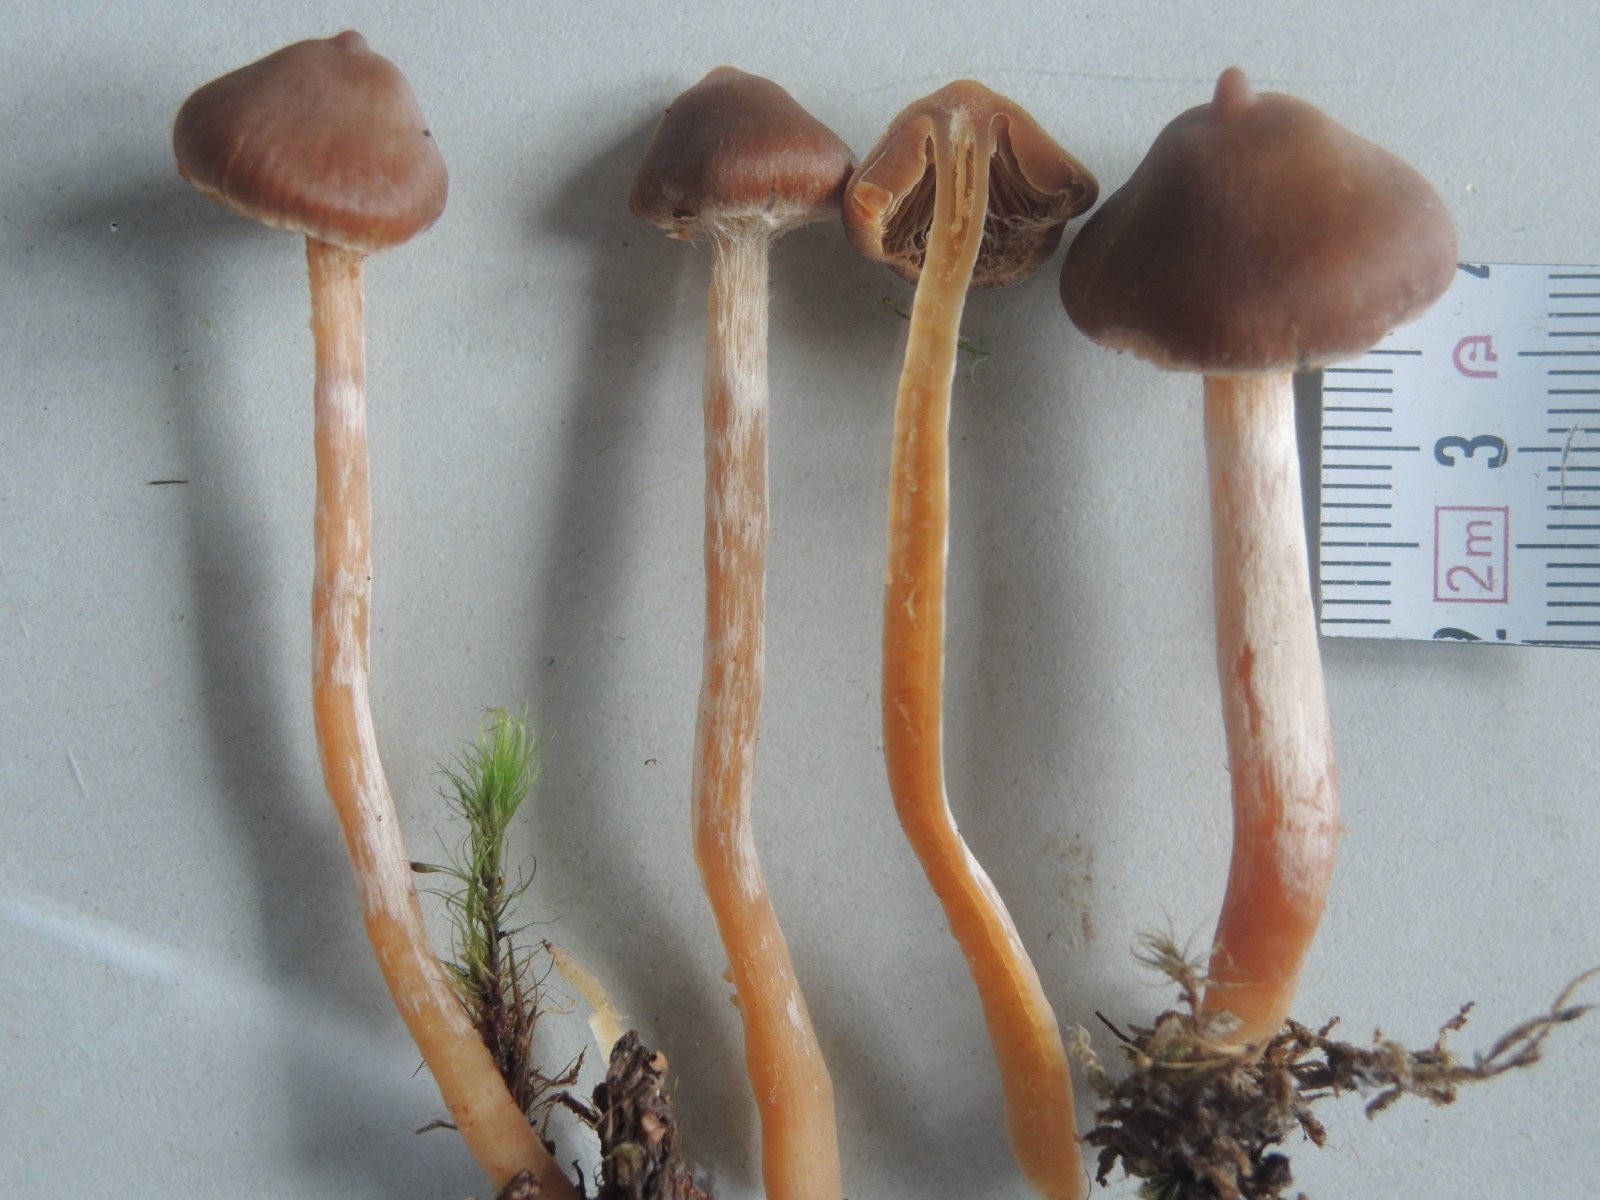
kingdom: Fungi
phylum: Basidiomycota
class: Agaricomycetes
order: Agaricales
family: Cortinariaceae
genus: Cortinarius
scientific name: Cortinarius aurae
